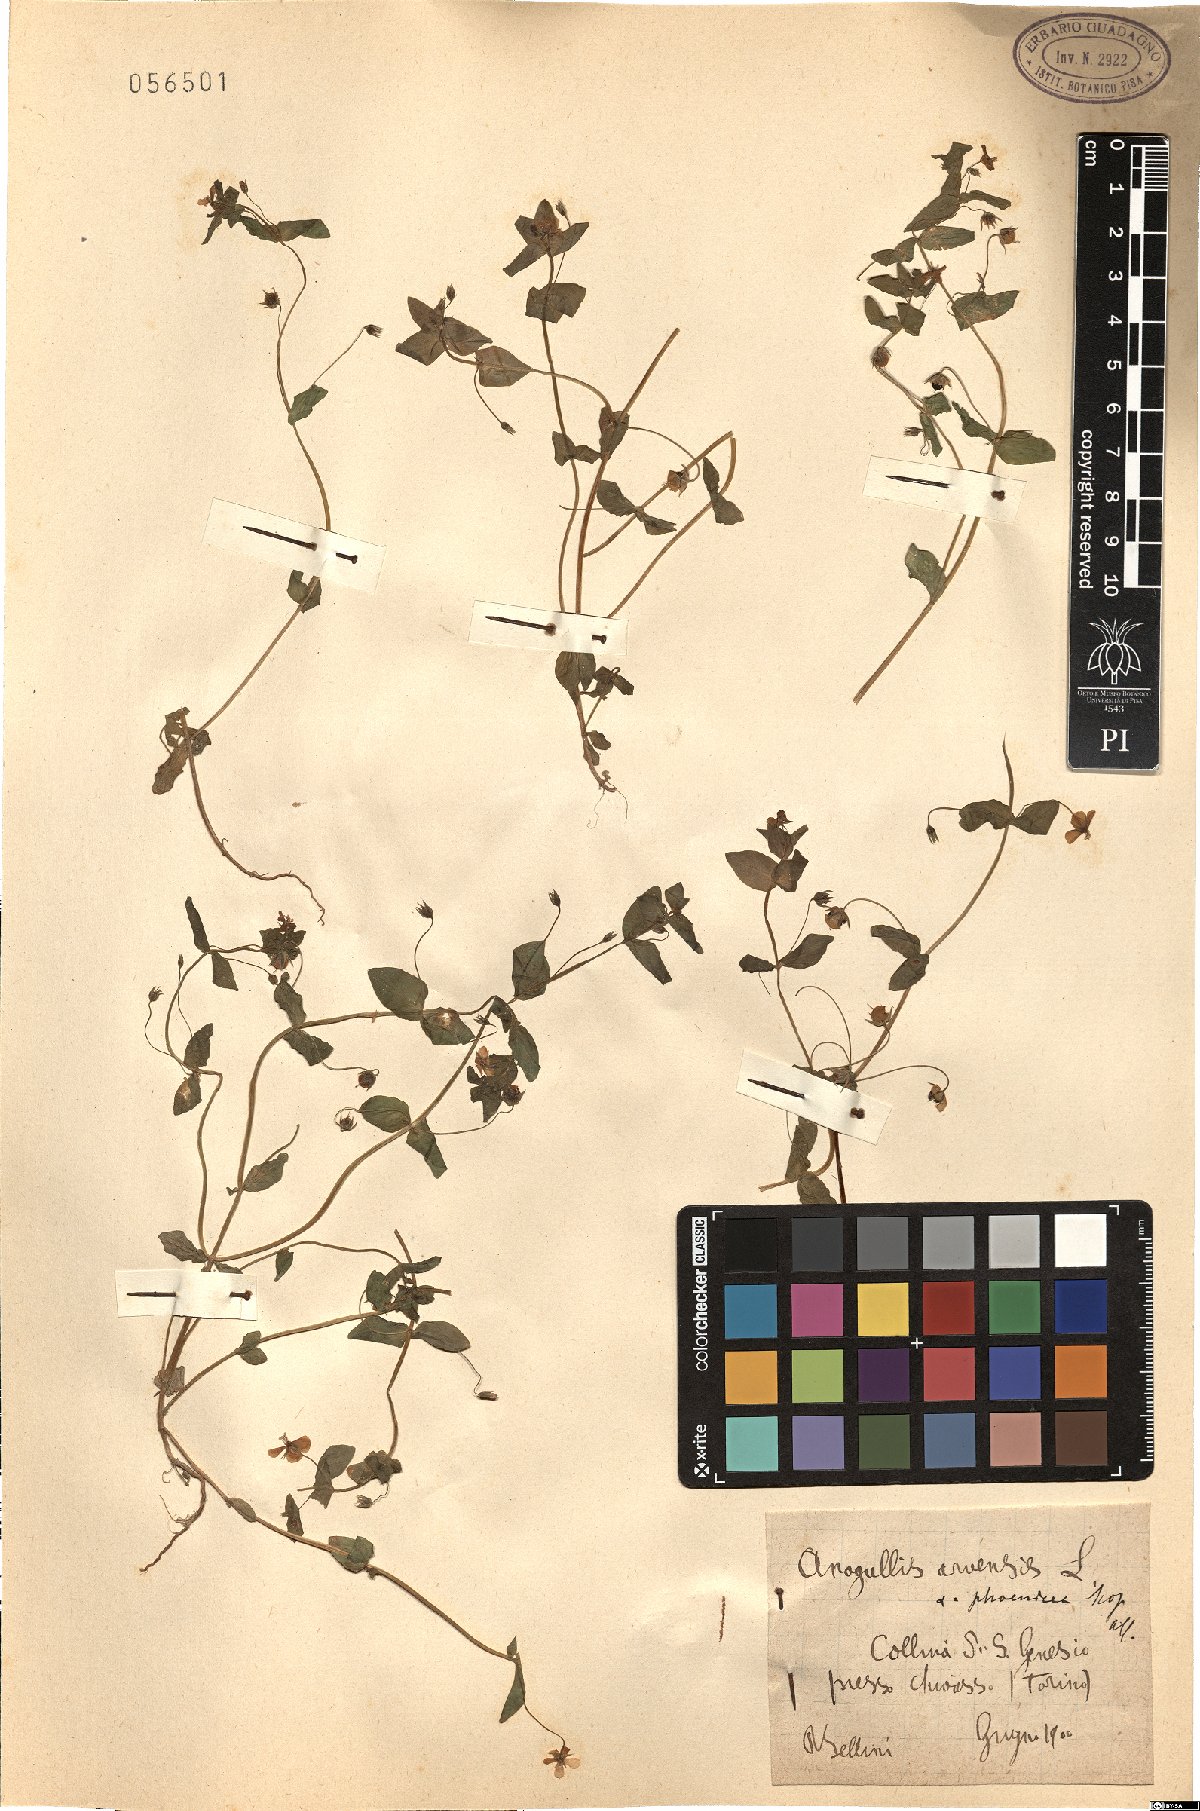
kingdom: Plantae
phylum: Tracheophyta
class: Magnoliopsida
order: Ericales
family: Primulaceae
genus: Lysimachia
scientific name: Lysimachia arvensis
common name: Scarlet pimpernel
